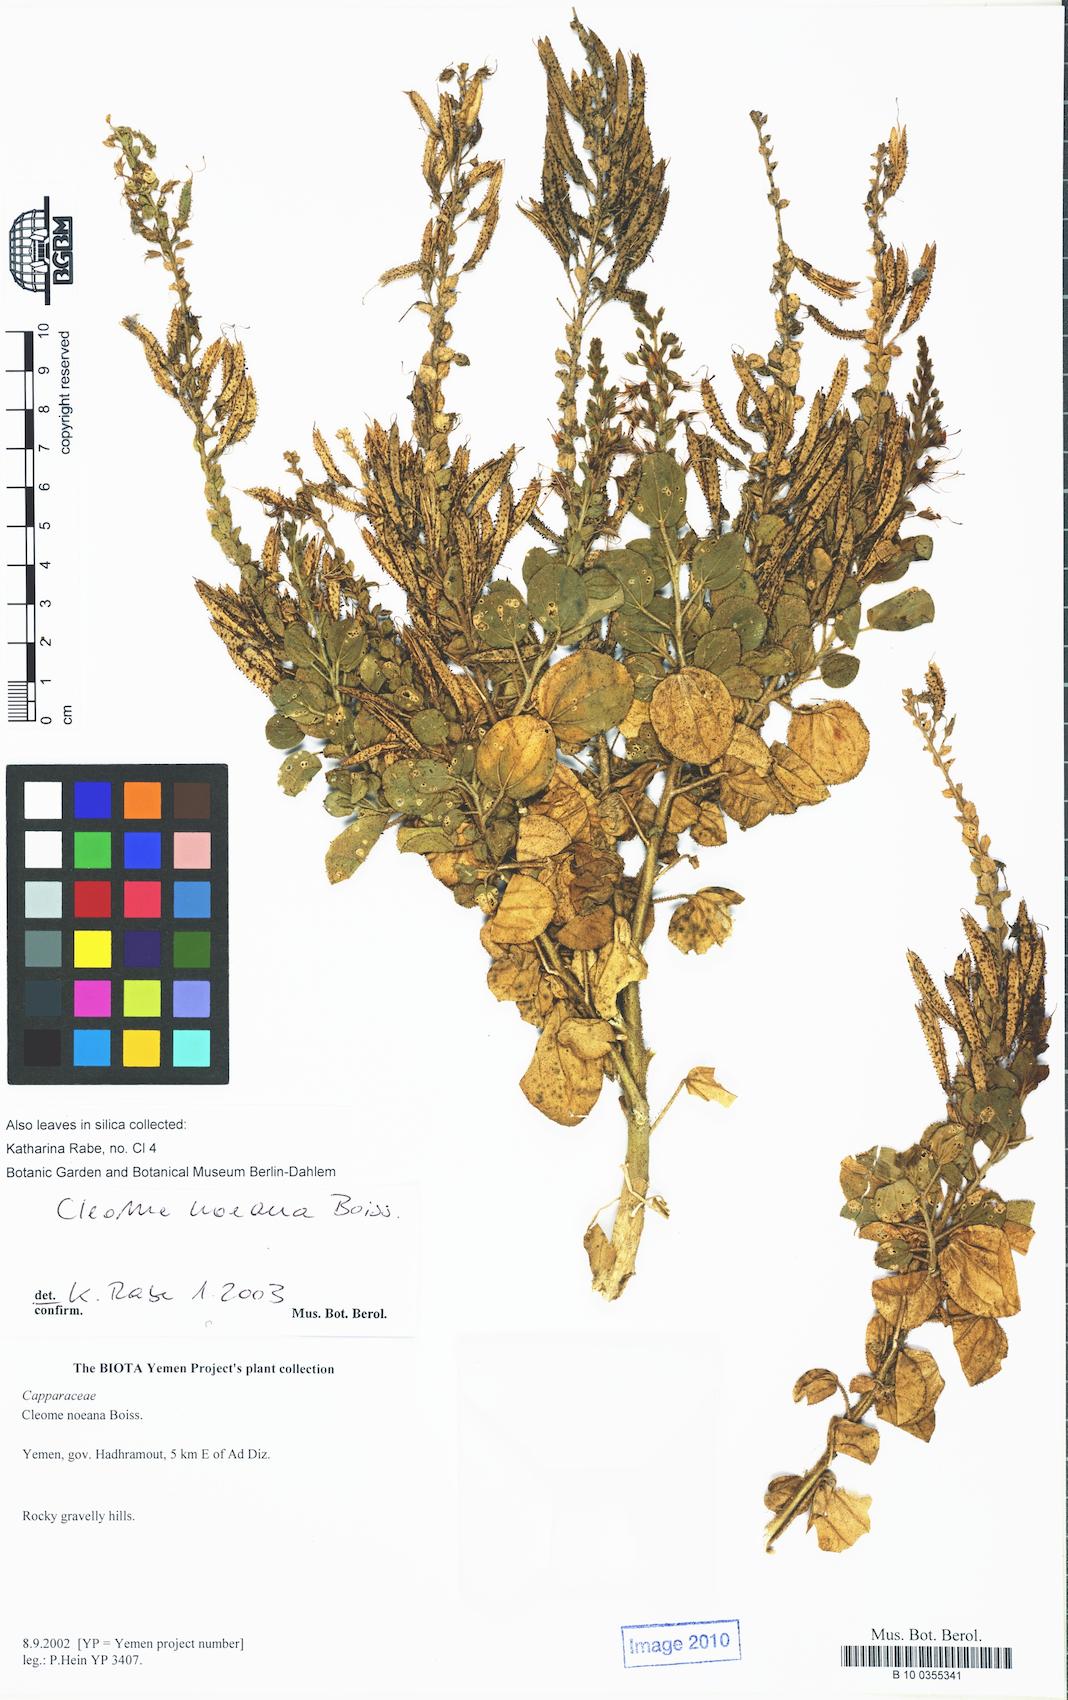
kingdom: Plantae
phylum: Tracheophyta
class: Magnoliopsida
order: Brassicales
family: Cleomaceae
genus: Rorida
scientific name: Rorida quinquenervia
